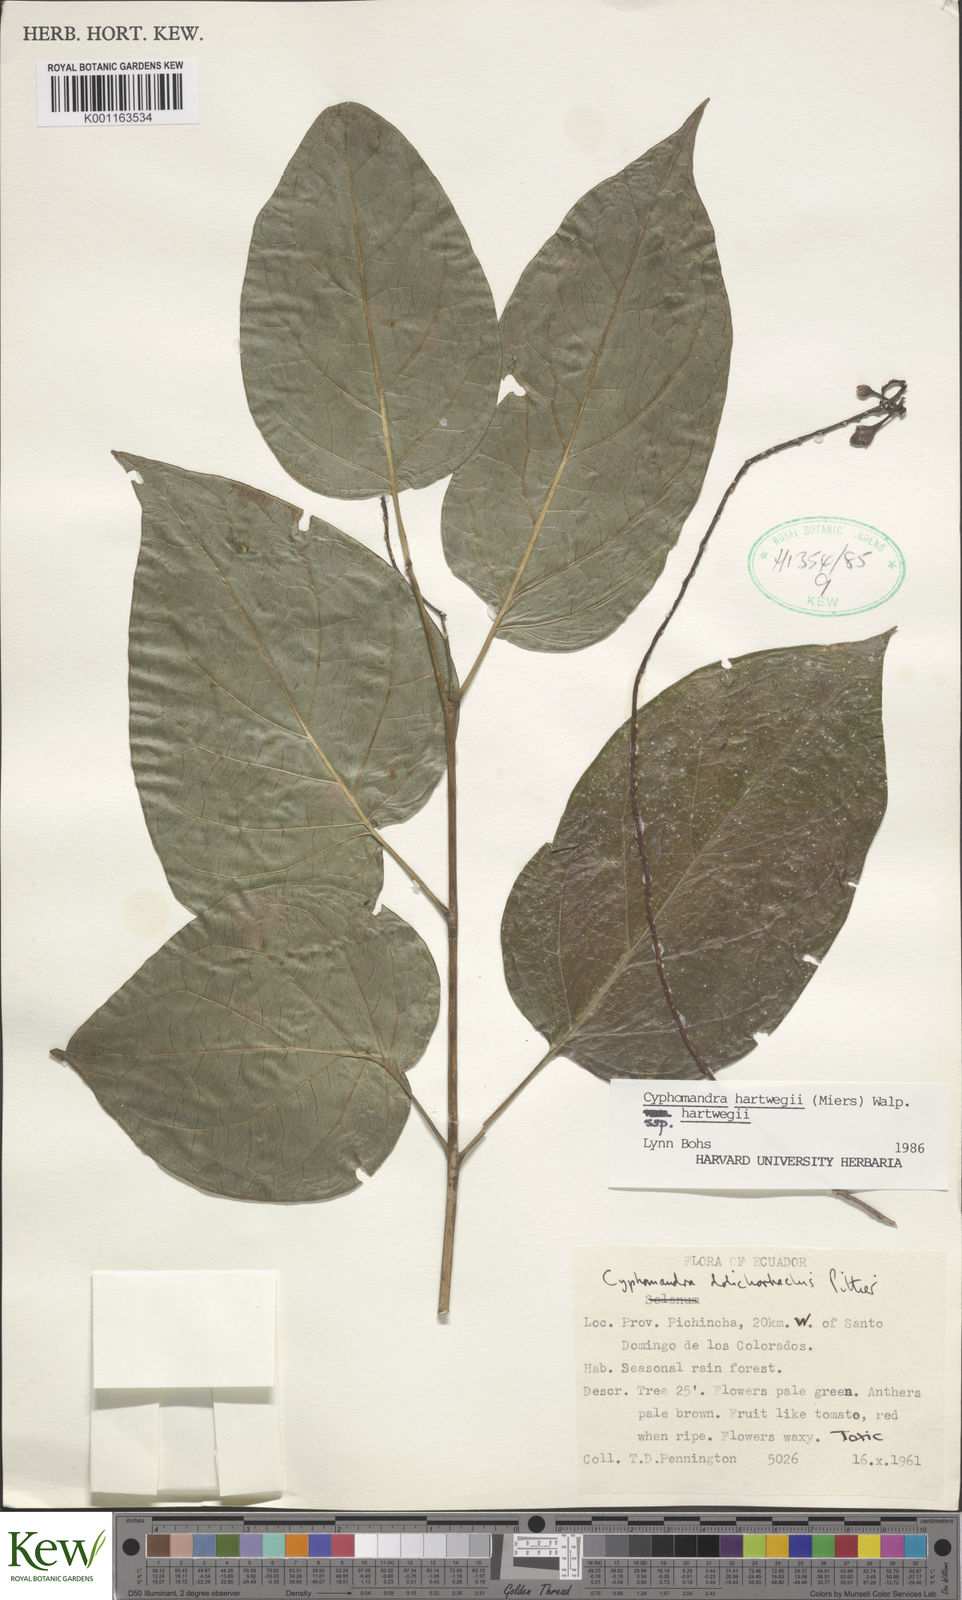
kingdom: Plantae
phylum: Tracheophyta
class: Magnoliopsida
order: Solanales
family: Solanaceae
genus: Solanum
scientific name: Solanum splendens
